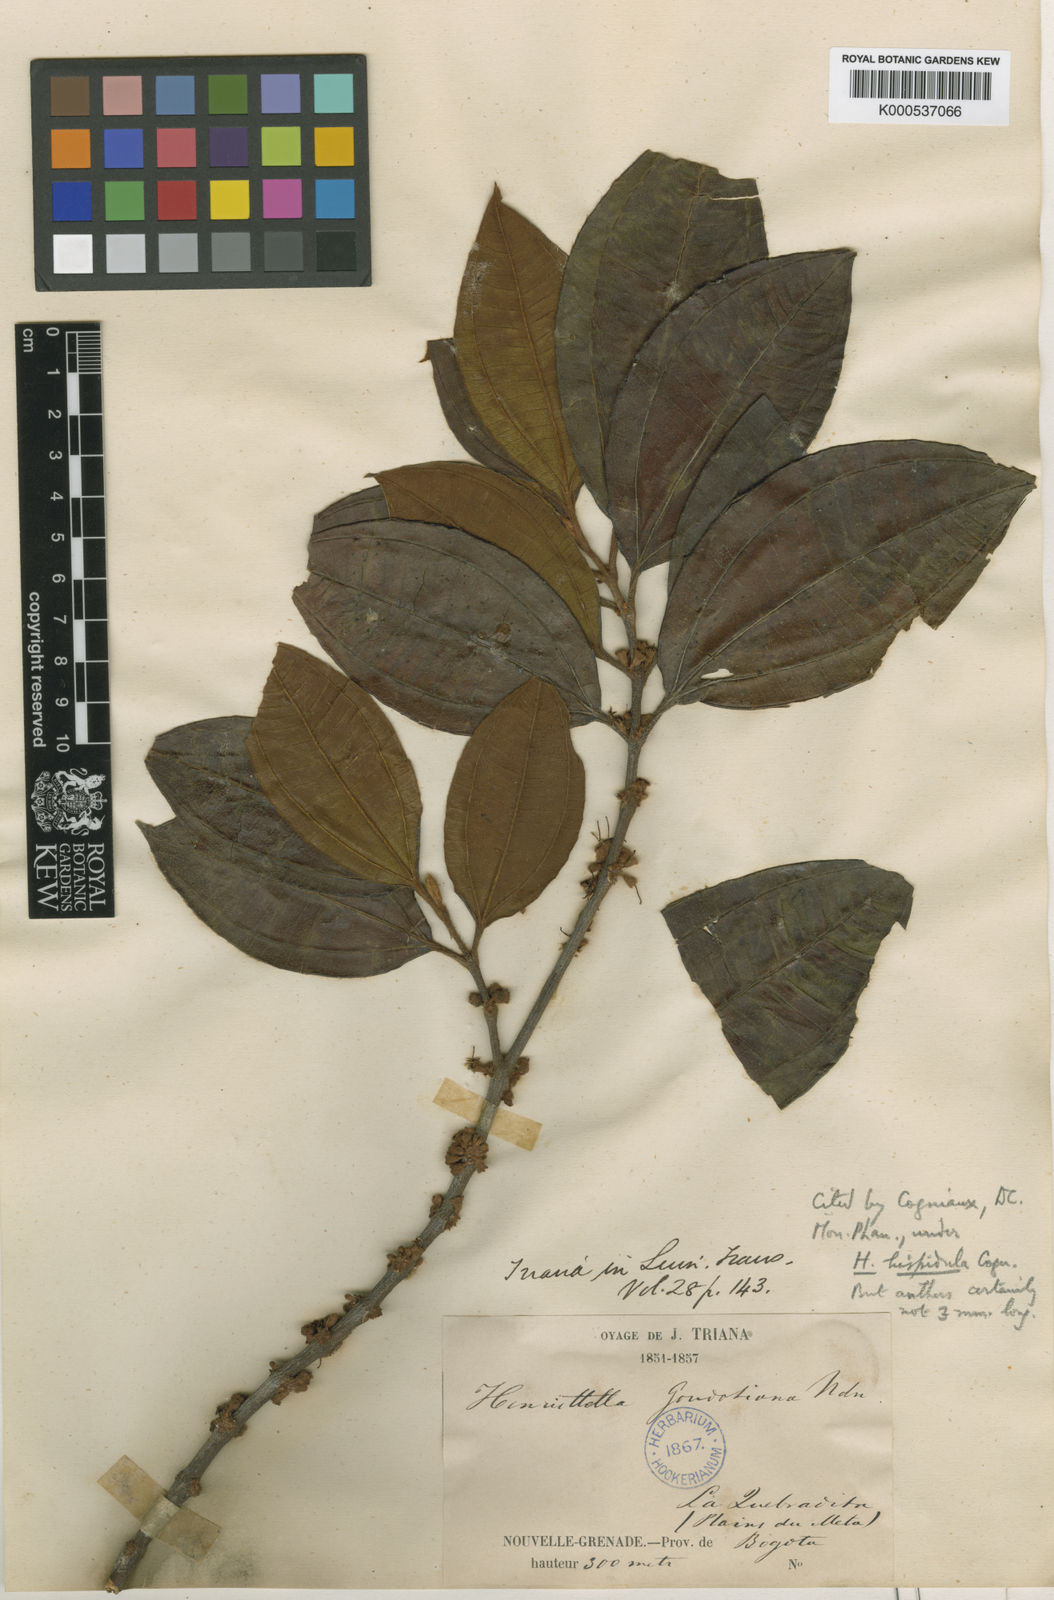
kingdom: Plantae
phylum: Tracheophyta
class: Magnoliopsida
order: Myrtales
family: Melastomataceae
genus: Henriettea
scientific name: Henriettea seemannii
